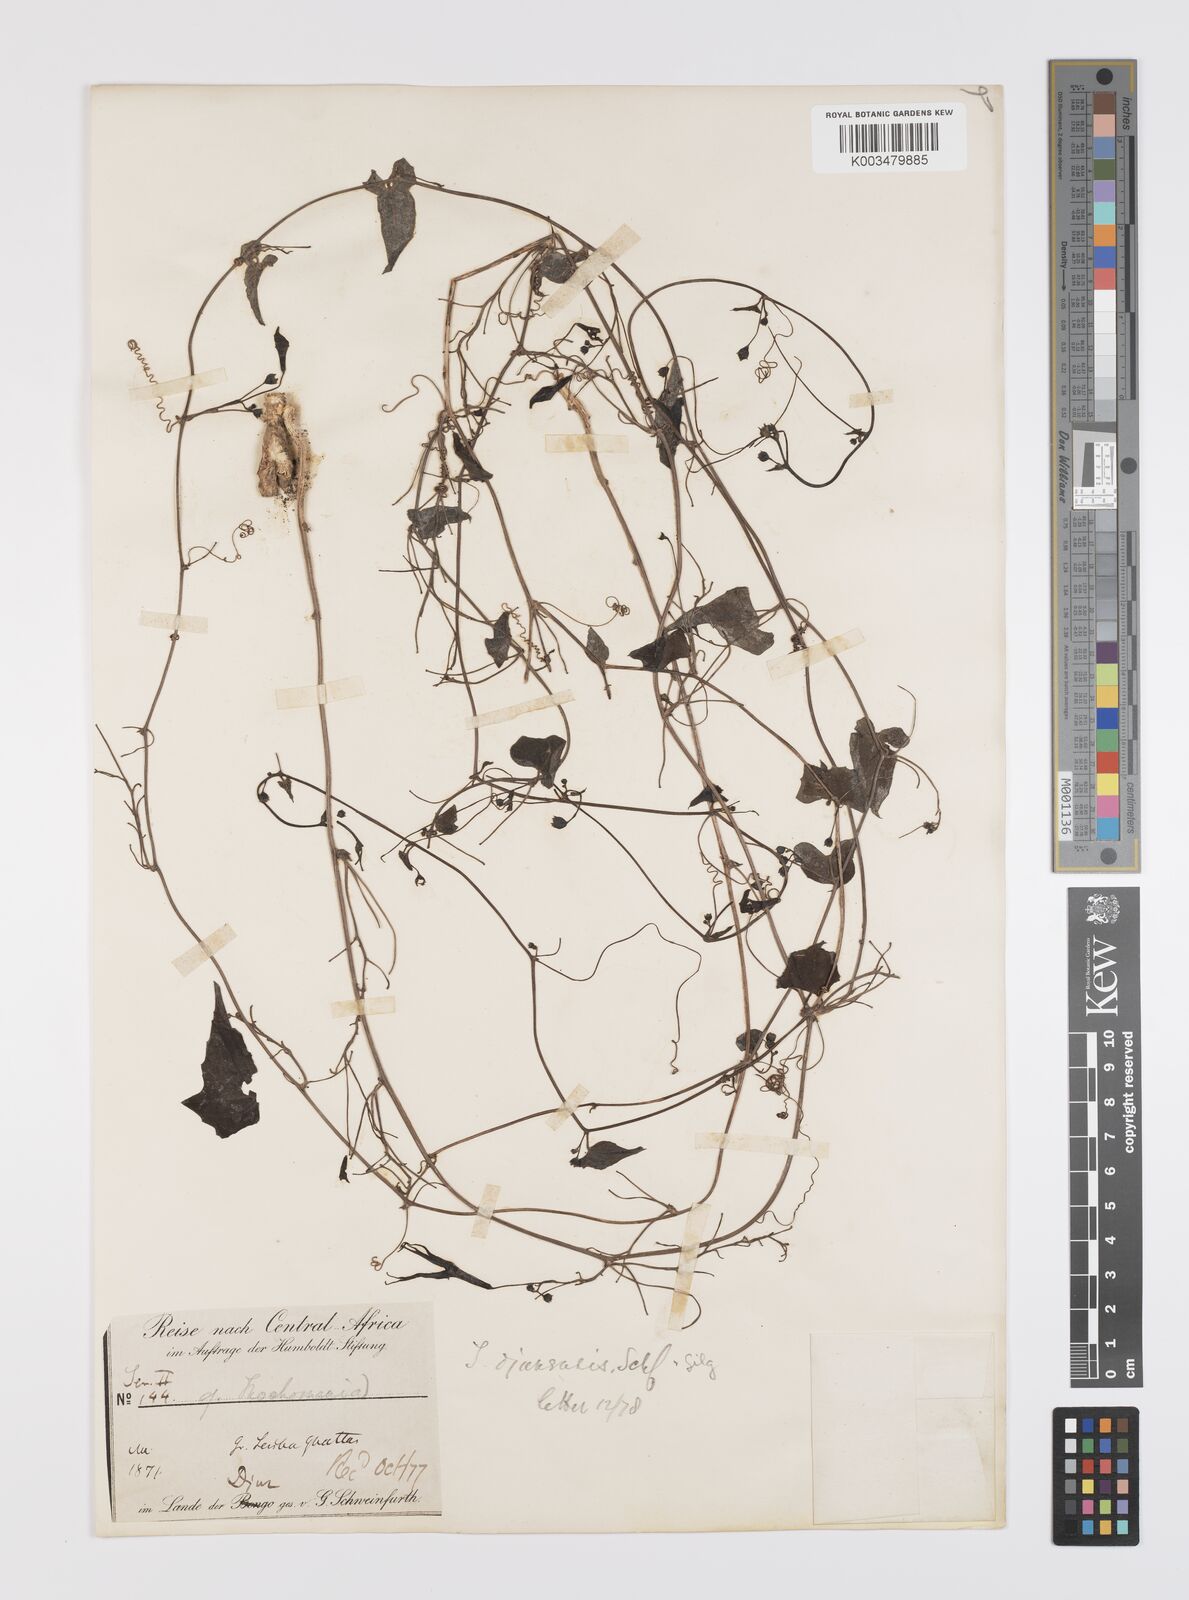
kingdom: Plantae
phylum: Tracheophyta
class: Magnoliopsida
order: Cucurbitales
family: Cucurbitaceae
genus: Trochomeria
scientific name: Trochomeria macrocarpa
